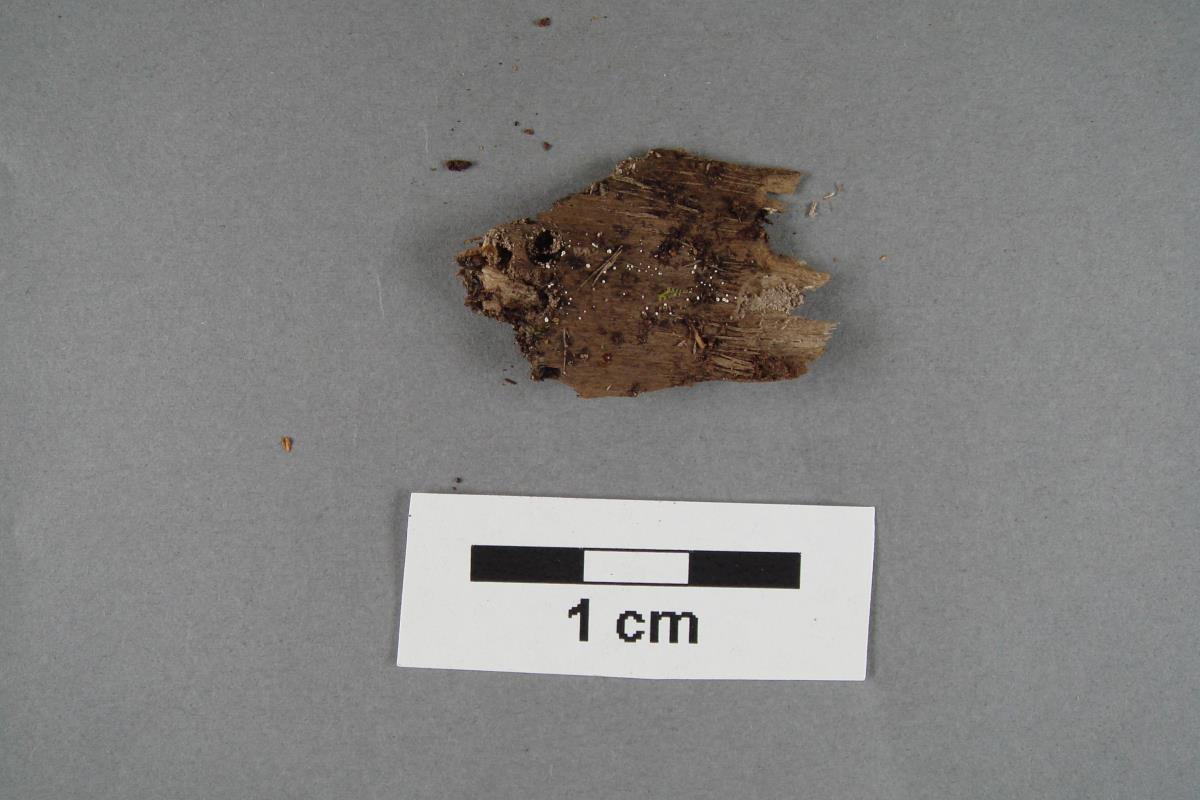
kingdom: Fungi
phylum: Basidiomycota
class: Agaricomycetes
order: Agaricales
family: Niaceae
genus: Flagelloscypha
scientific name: Flagelloscypha
